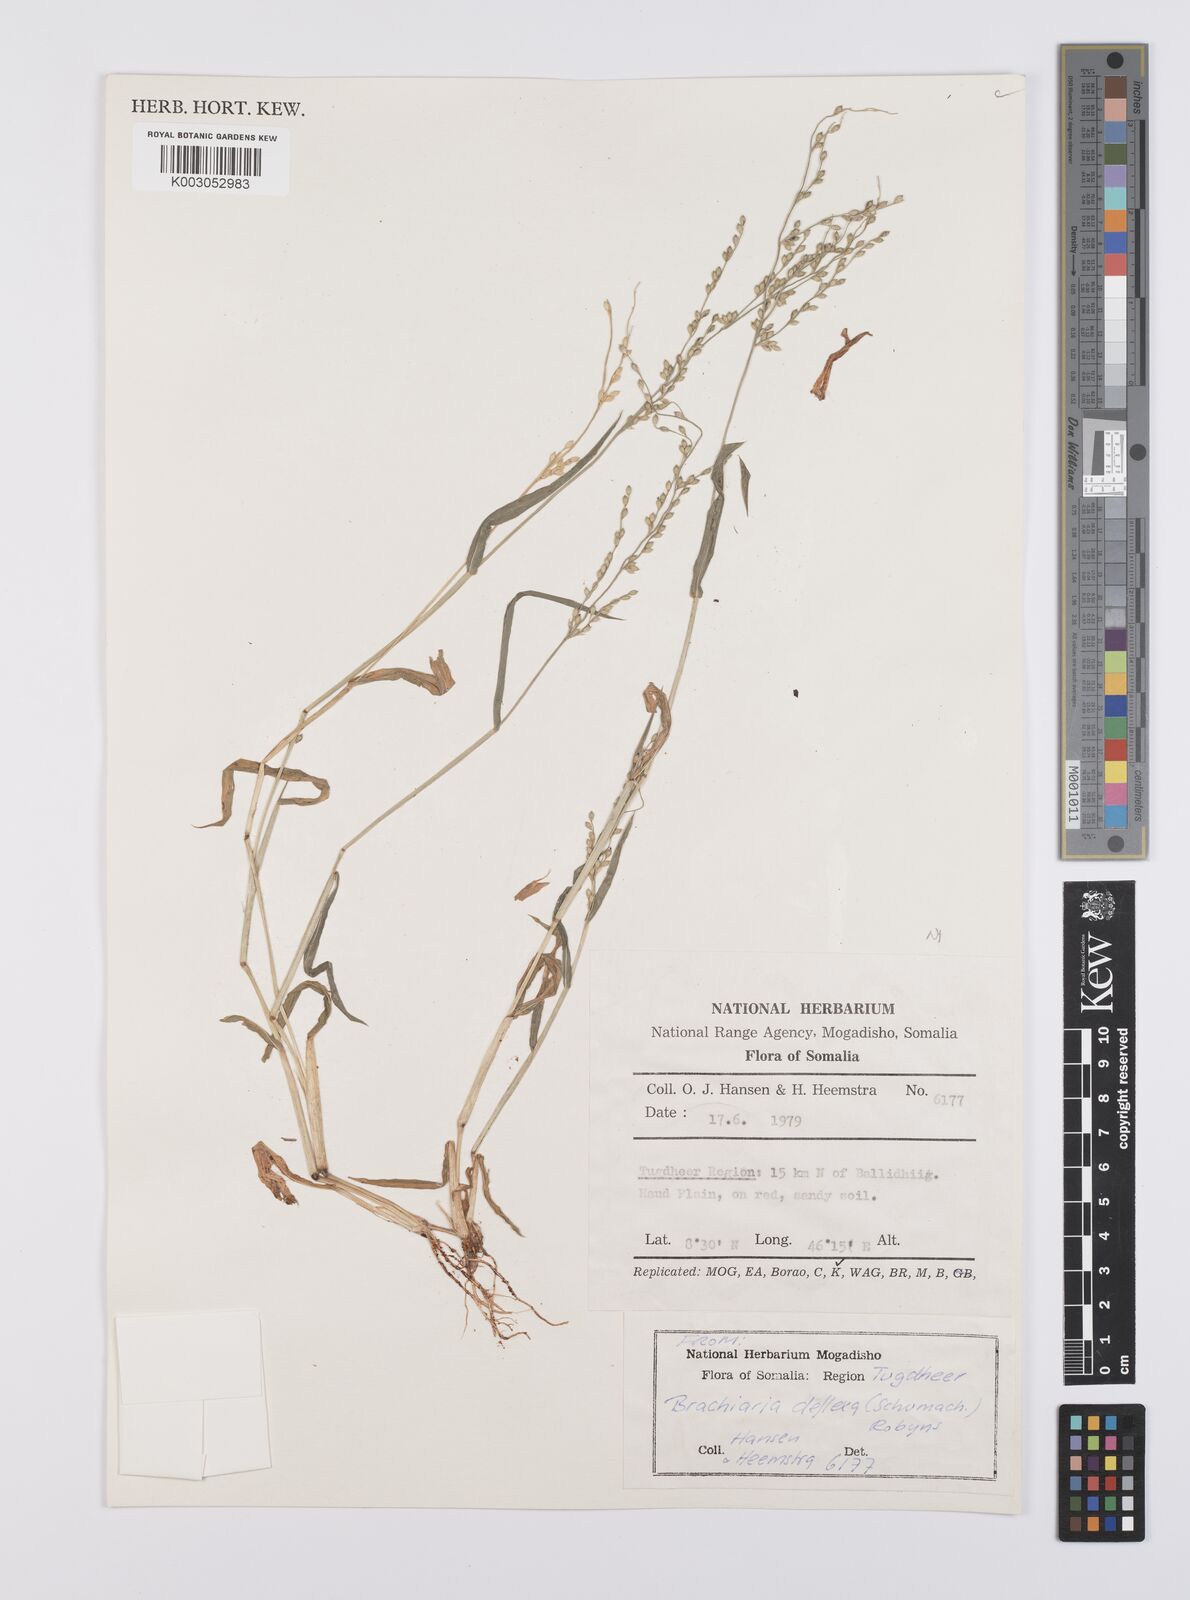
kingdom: Plantae
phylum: Tracheophyta
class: Liliopsida
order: Poales
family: Poaceae
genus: Urochloa
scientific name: Urochloa deflexa
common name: Guinea millet
